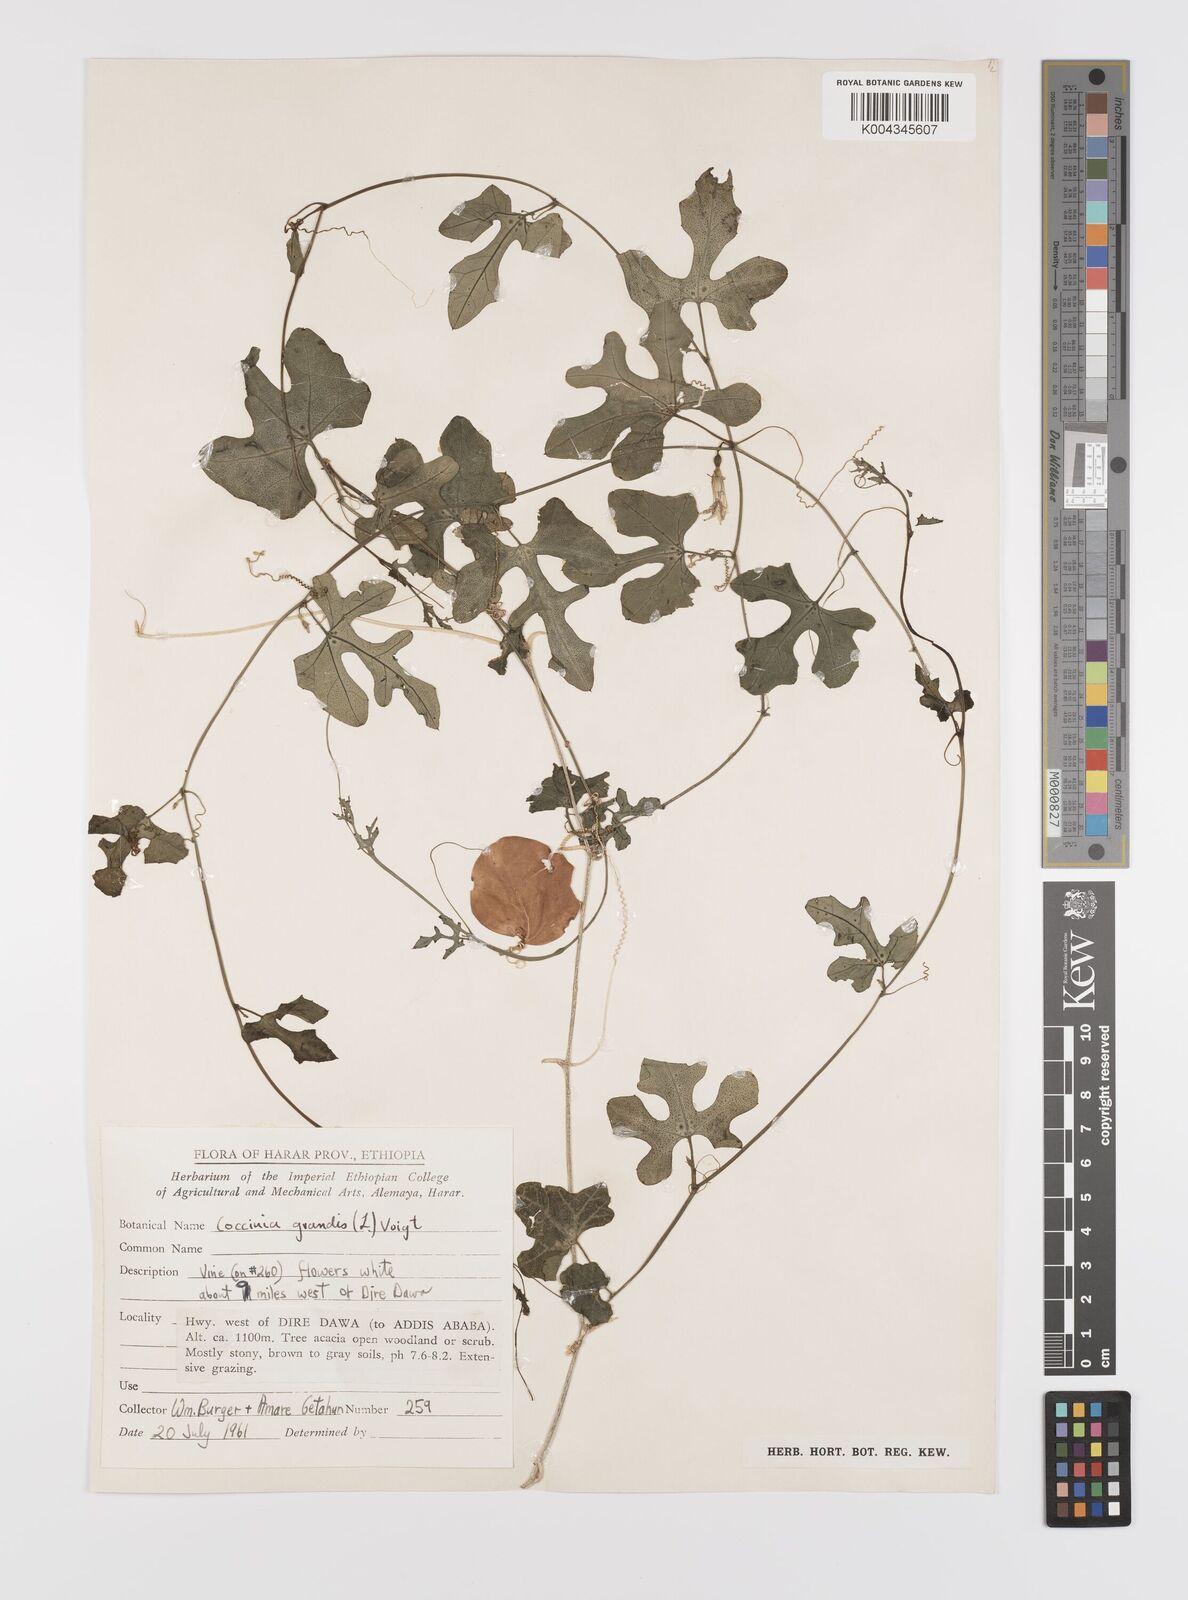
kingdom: Plantae
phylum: Tracheophyta
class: Magnoliopsida
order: Cucurbitales
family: Cucurbitaceae
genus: Coccinia
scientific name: Coccinia grandis
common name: Ivy gourd
